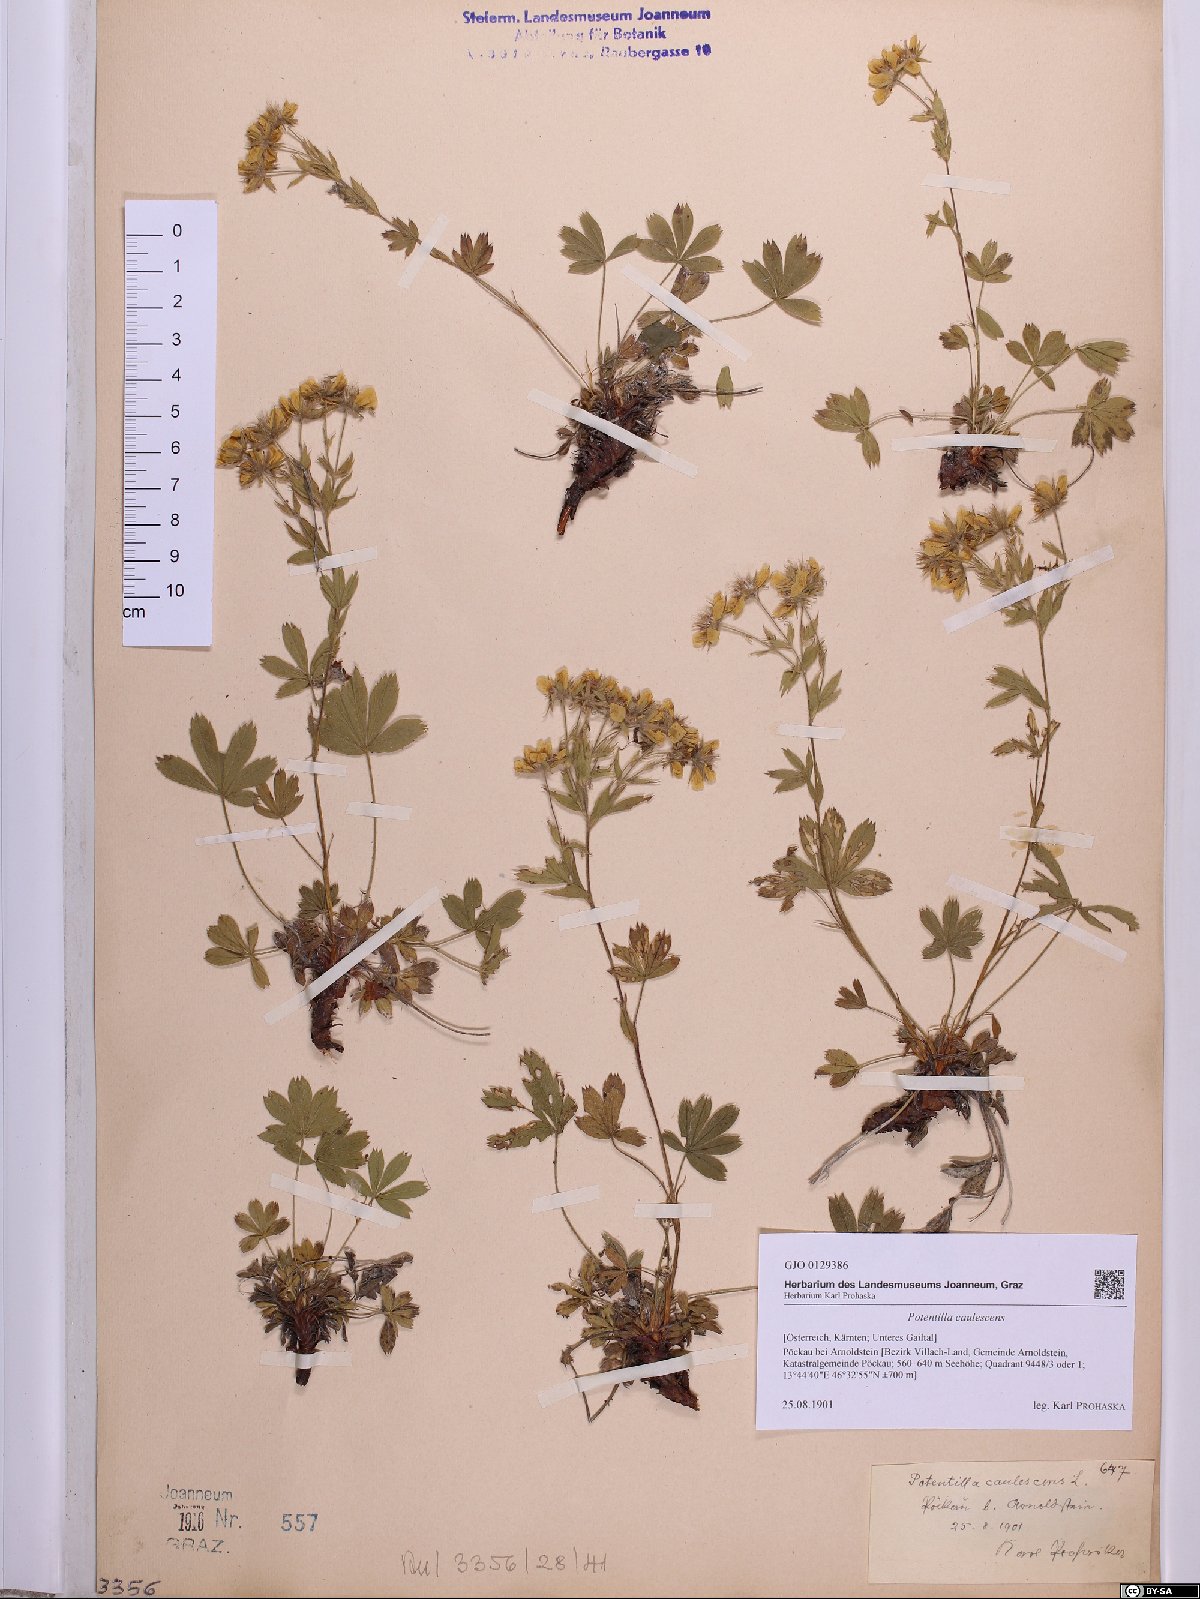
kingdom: Plantae
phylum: Tracheophyta
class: Magnoliopsida
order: Rosales
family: Rosaceae
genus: Potentilla
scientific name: Potentilla caulescens
